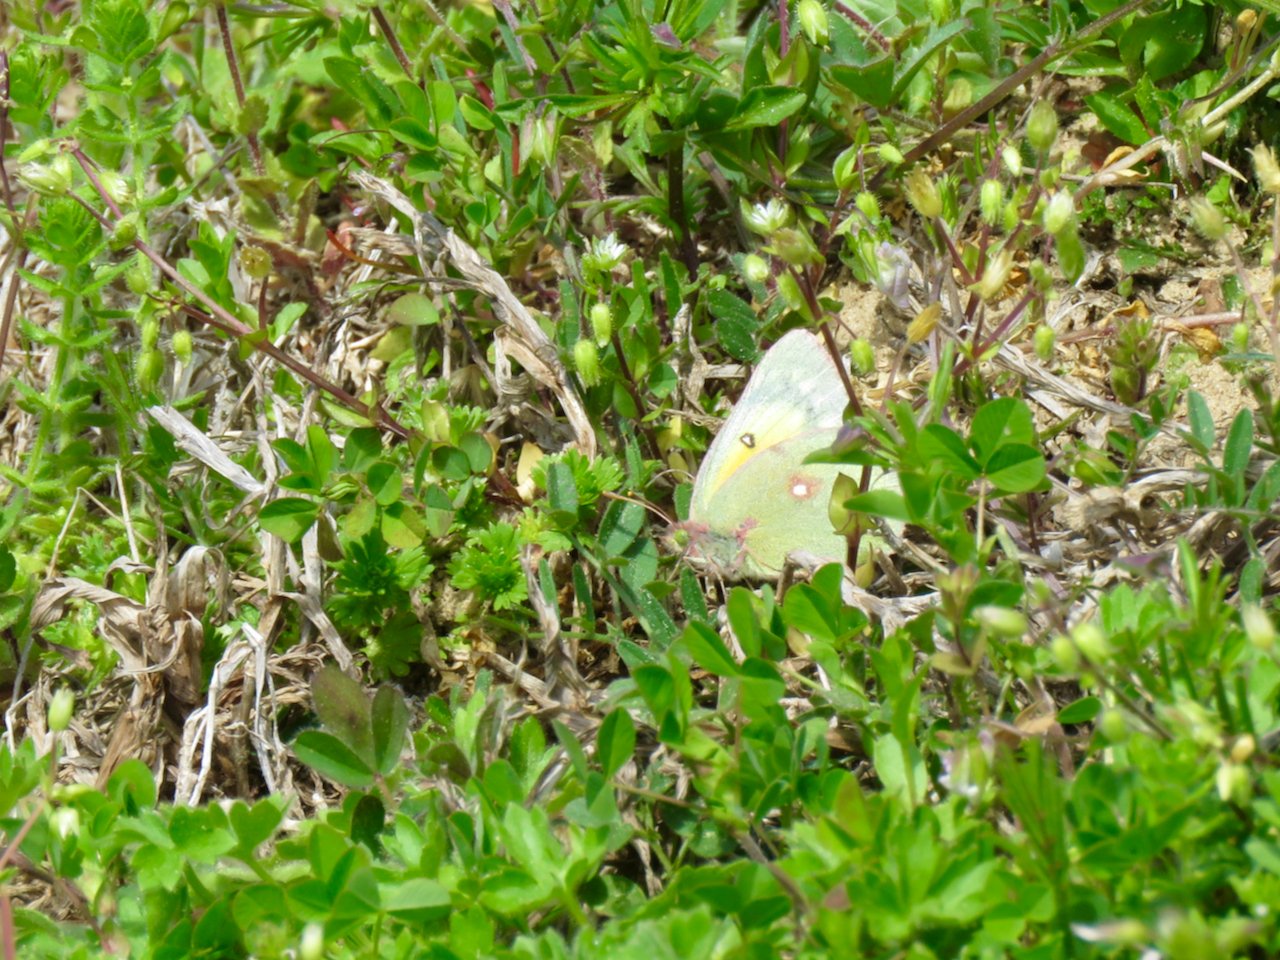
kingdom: Animalia
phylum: Arthropoda
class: Insecta
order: Lepidoptera
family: Pieridae
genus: Colias
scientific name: Colias eurytheme
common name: Orange Sulphur
